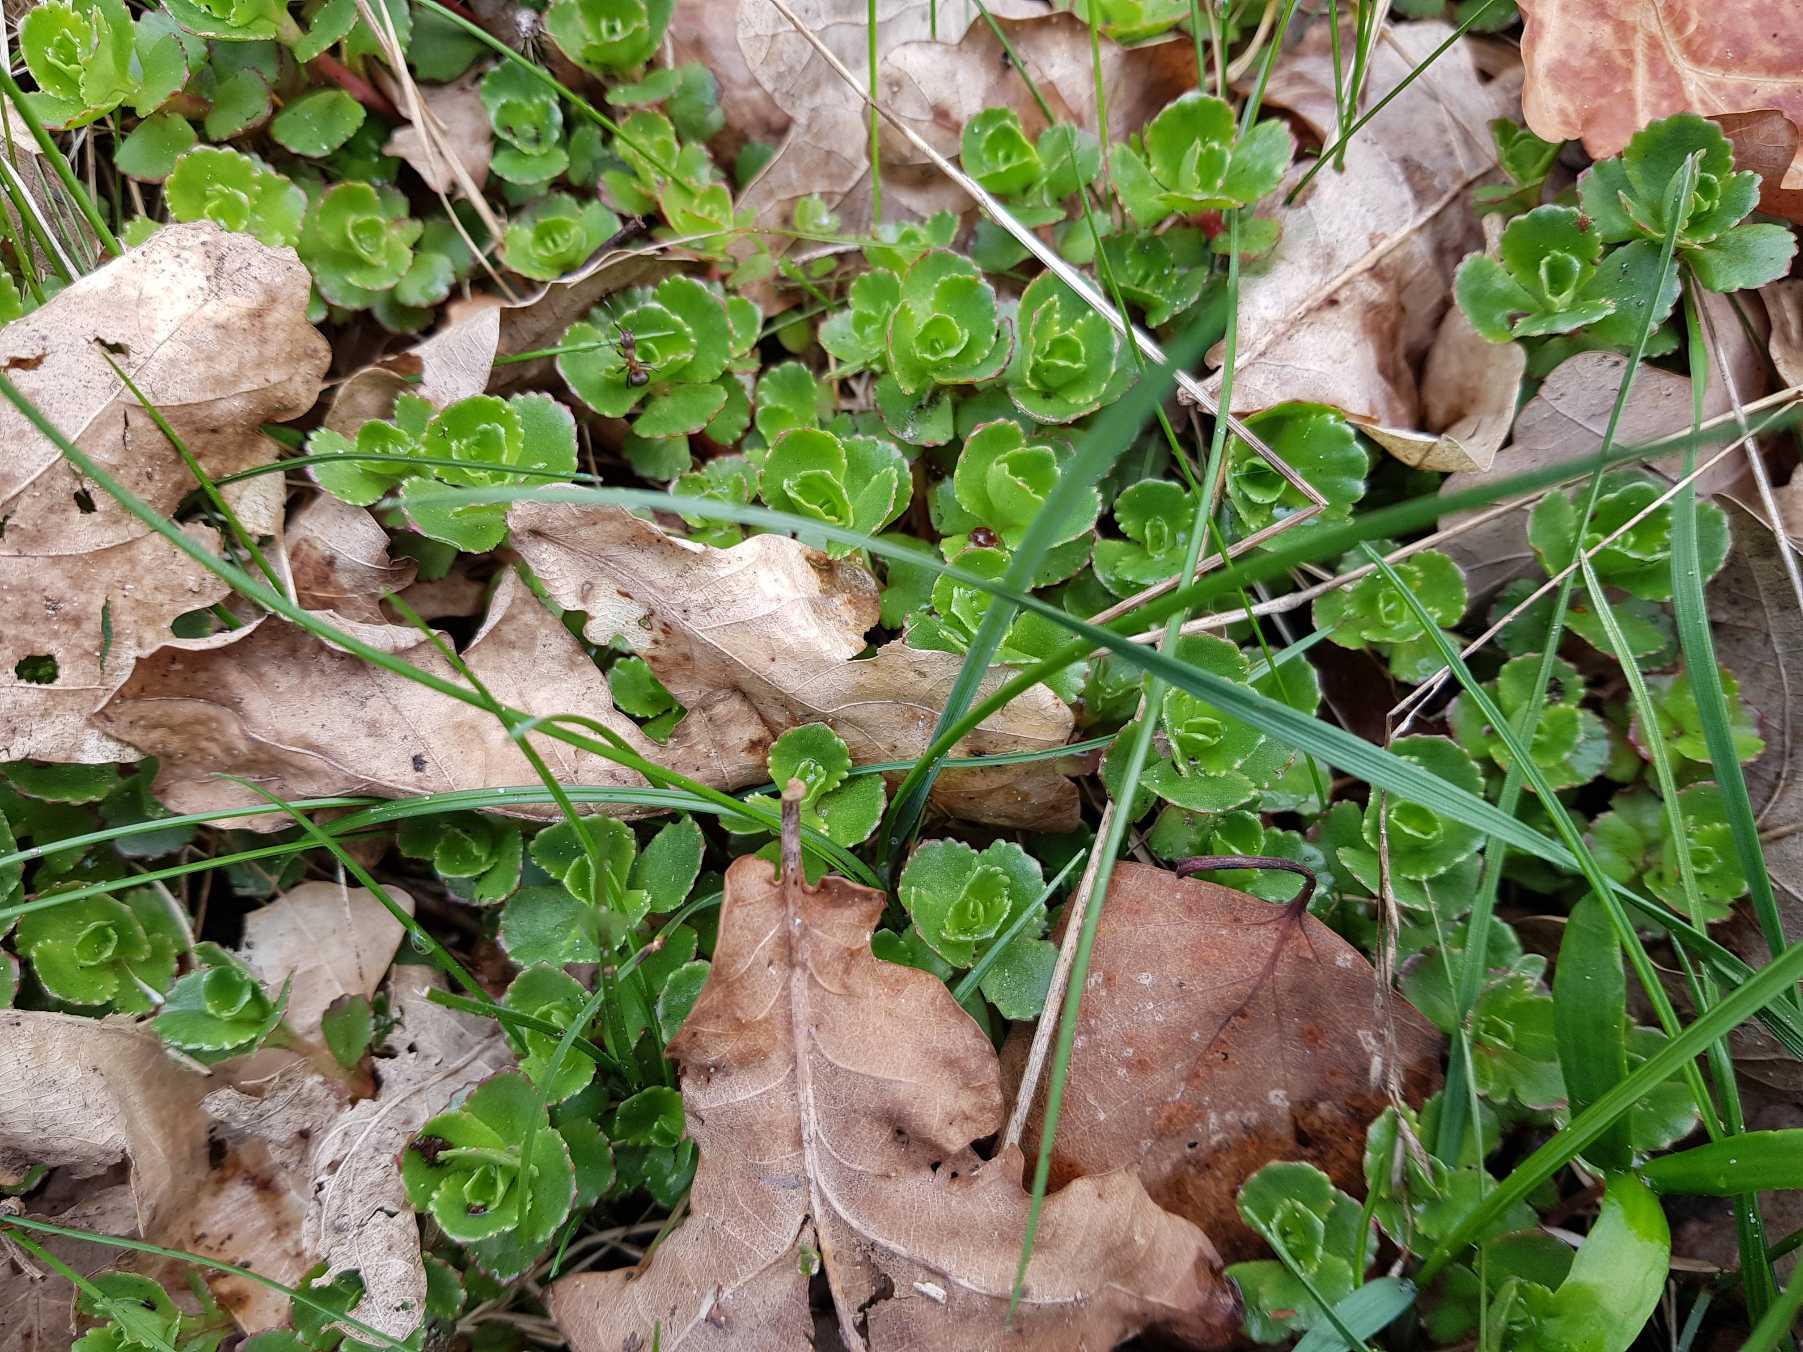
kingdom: Plantae
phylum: Tracheophyta
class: Magnoliopsida
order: Saxifragales
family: Crassulaceae
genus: Phedimus
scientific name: Phedimus spurius
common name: Rød stenurt
